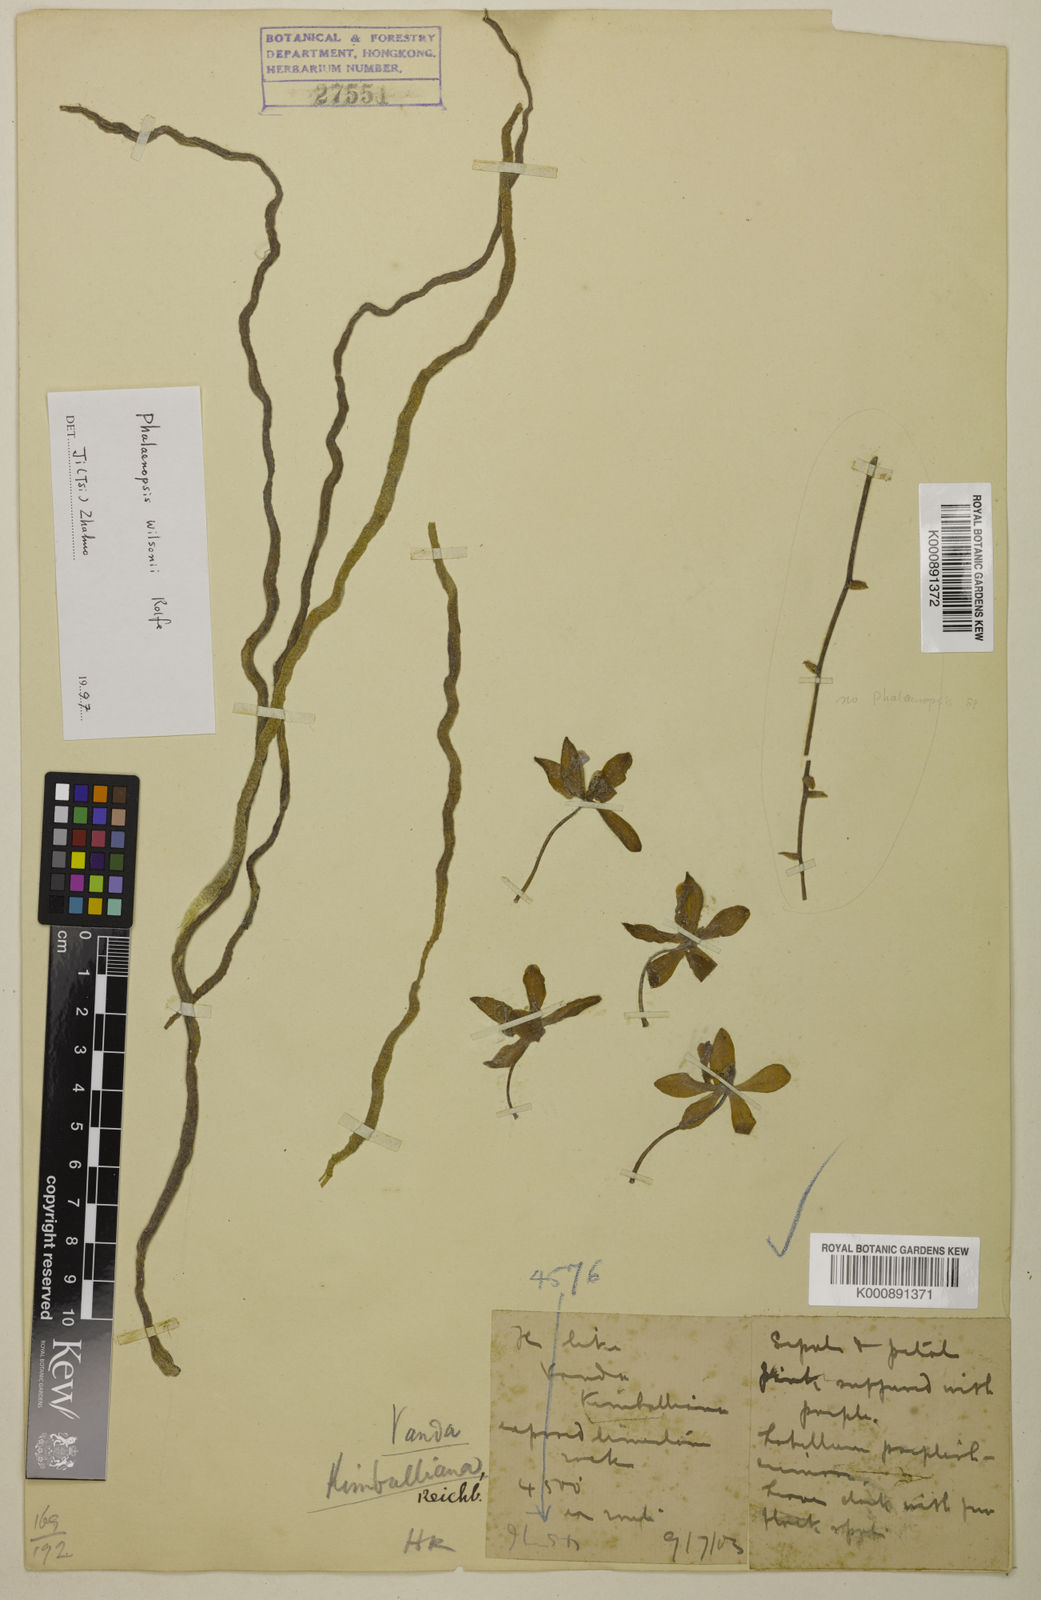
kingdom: Plantae
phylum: Tracheophyta
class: Liliopsida
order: Asparagales
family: Orchidaceae
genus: Phalaenopsis
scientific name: Phalaenopsis wilsonii
